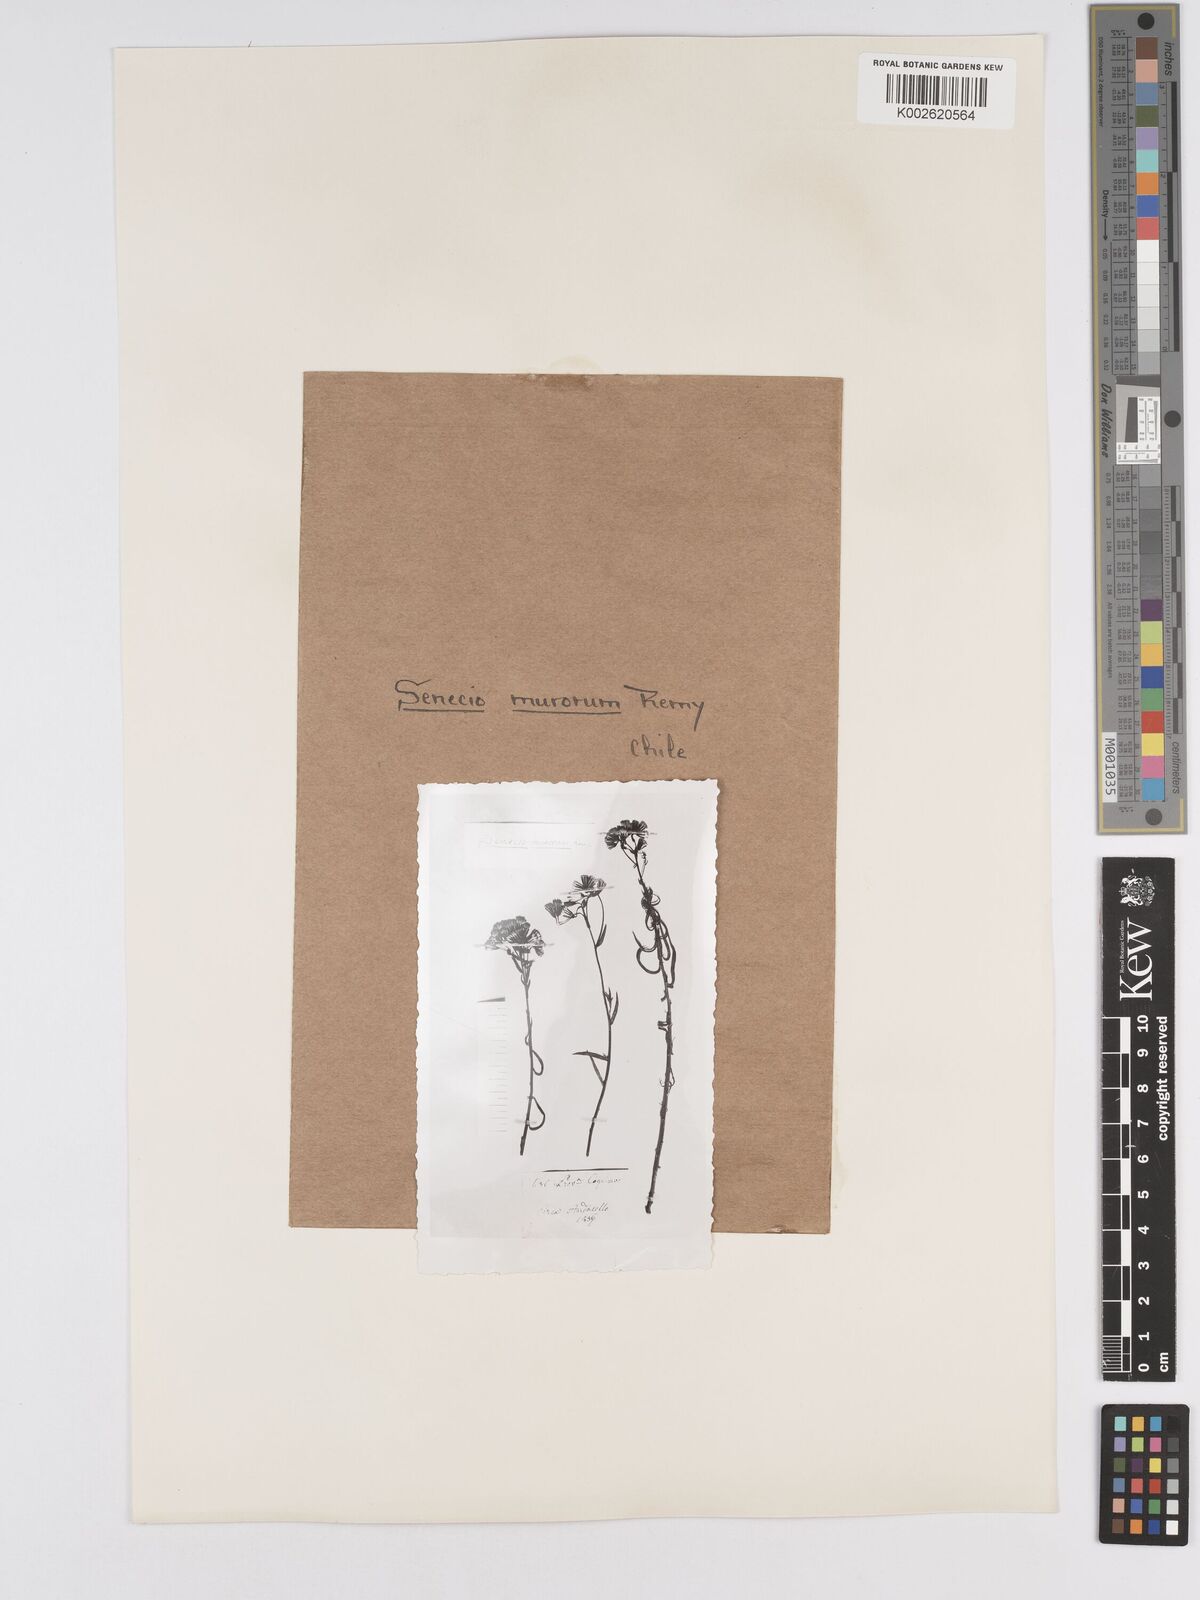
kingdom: Plantae
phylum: Tracheophyta
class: Magnoliopsida
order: Asterales
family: Asteraceae
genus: Senecio
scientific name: Senecio murorum
